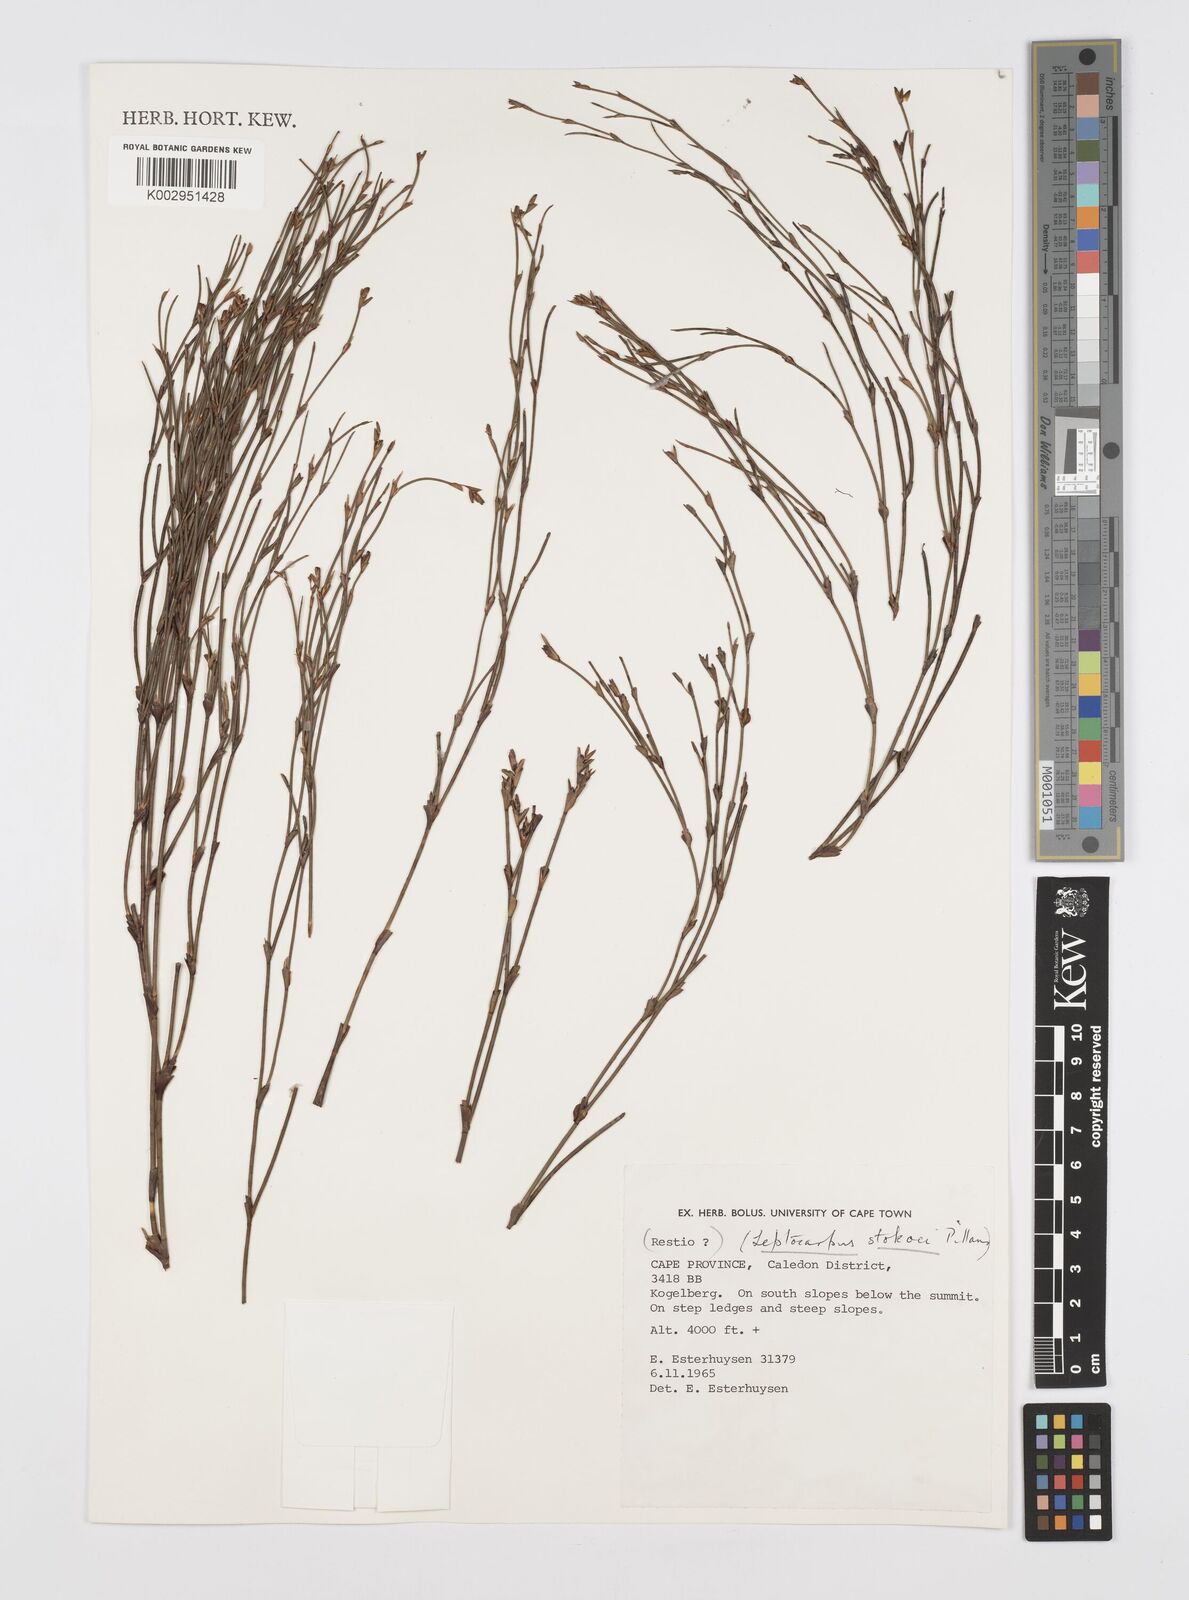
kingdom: Plantae
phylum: Tracheophyta
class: Liliopsida
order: Poales
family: Restionaceae
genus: Restio
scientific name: Restio pillansii
